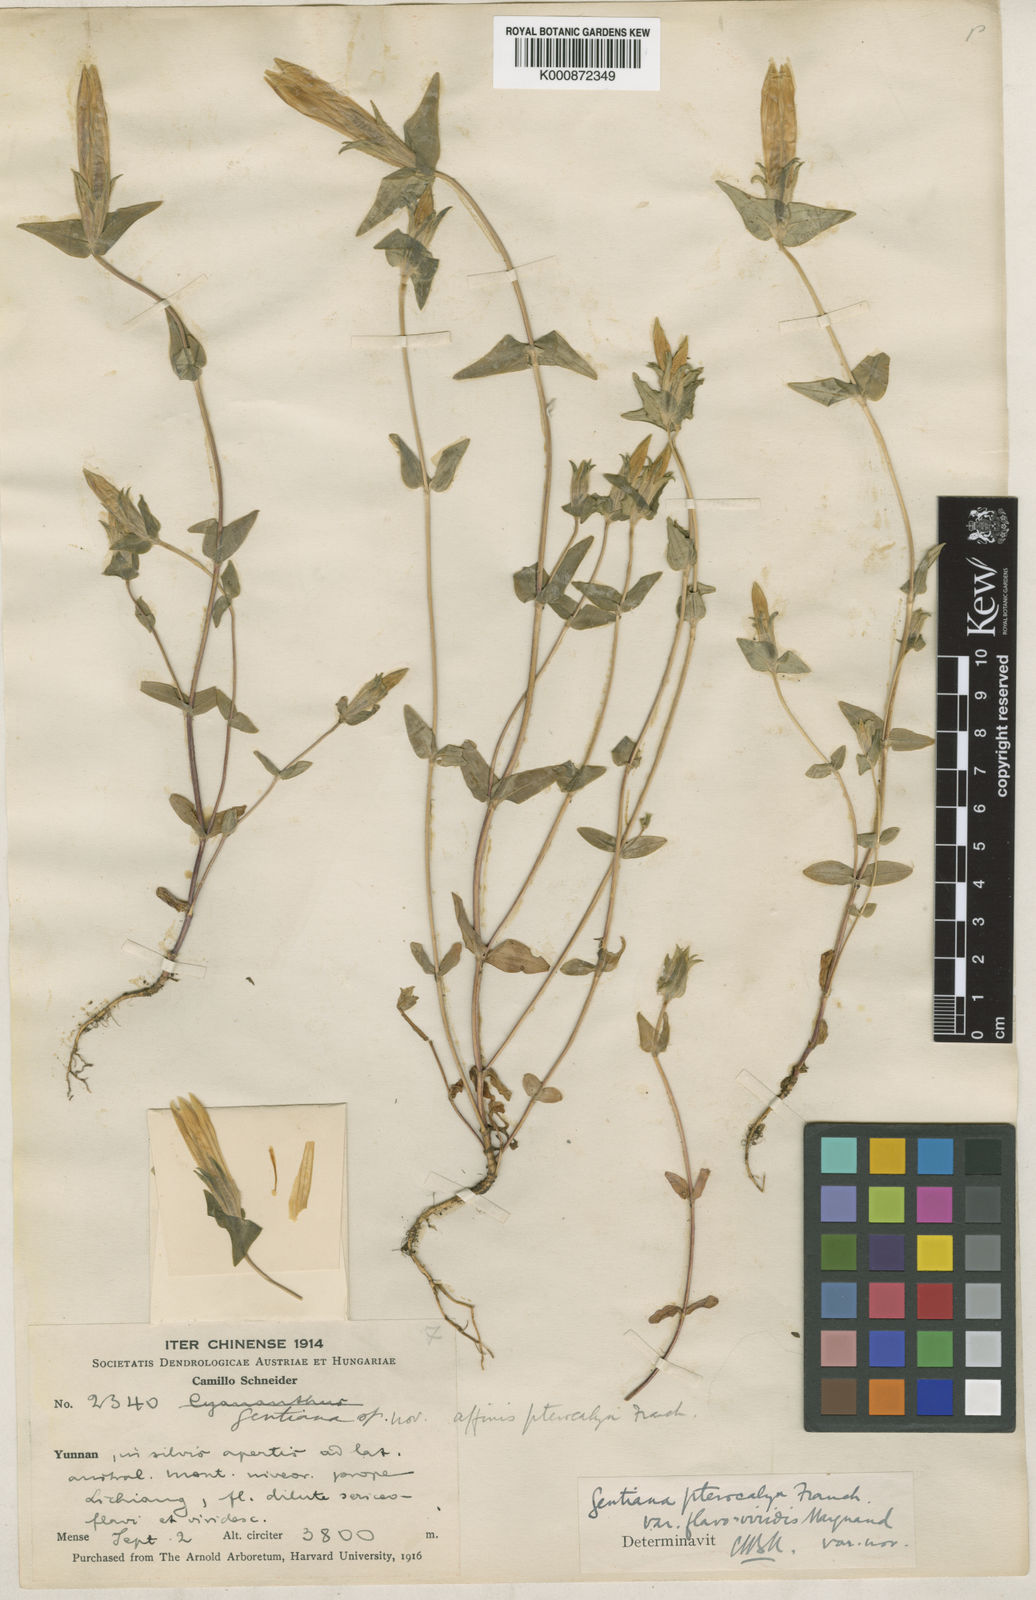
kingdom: Plantae
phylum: Tracheophyta
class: Magnoliopsida
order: Gentianales
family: Gentianaceae
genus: Sinogentiana
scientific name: Sinogentiana souliei
